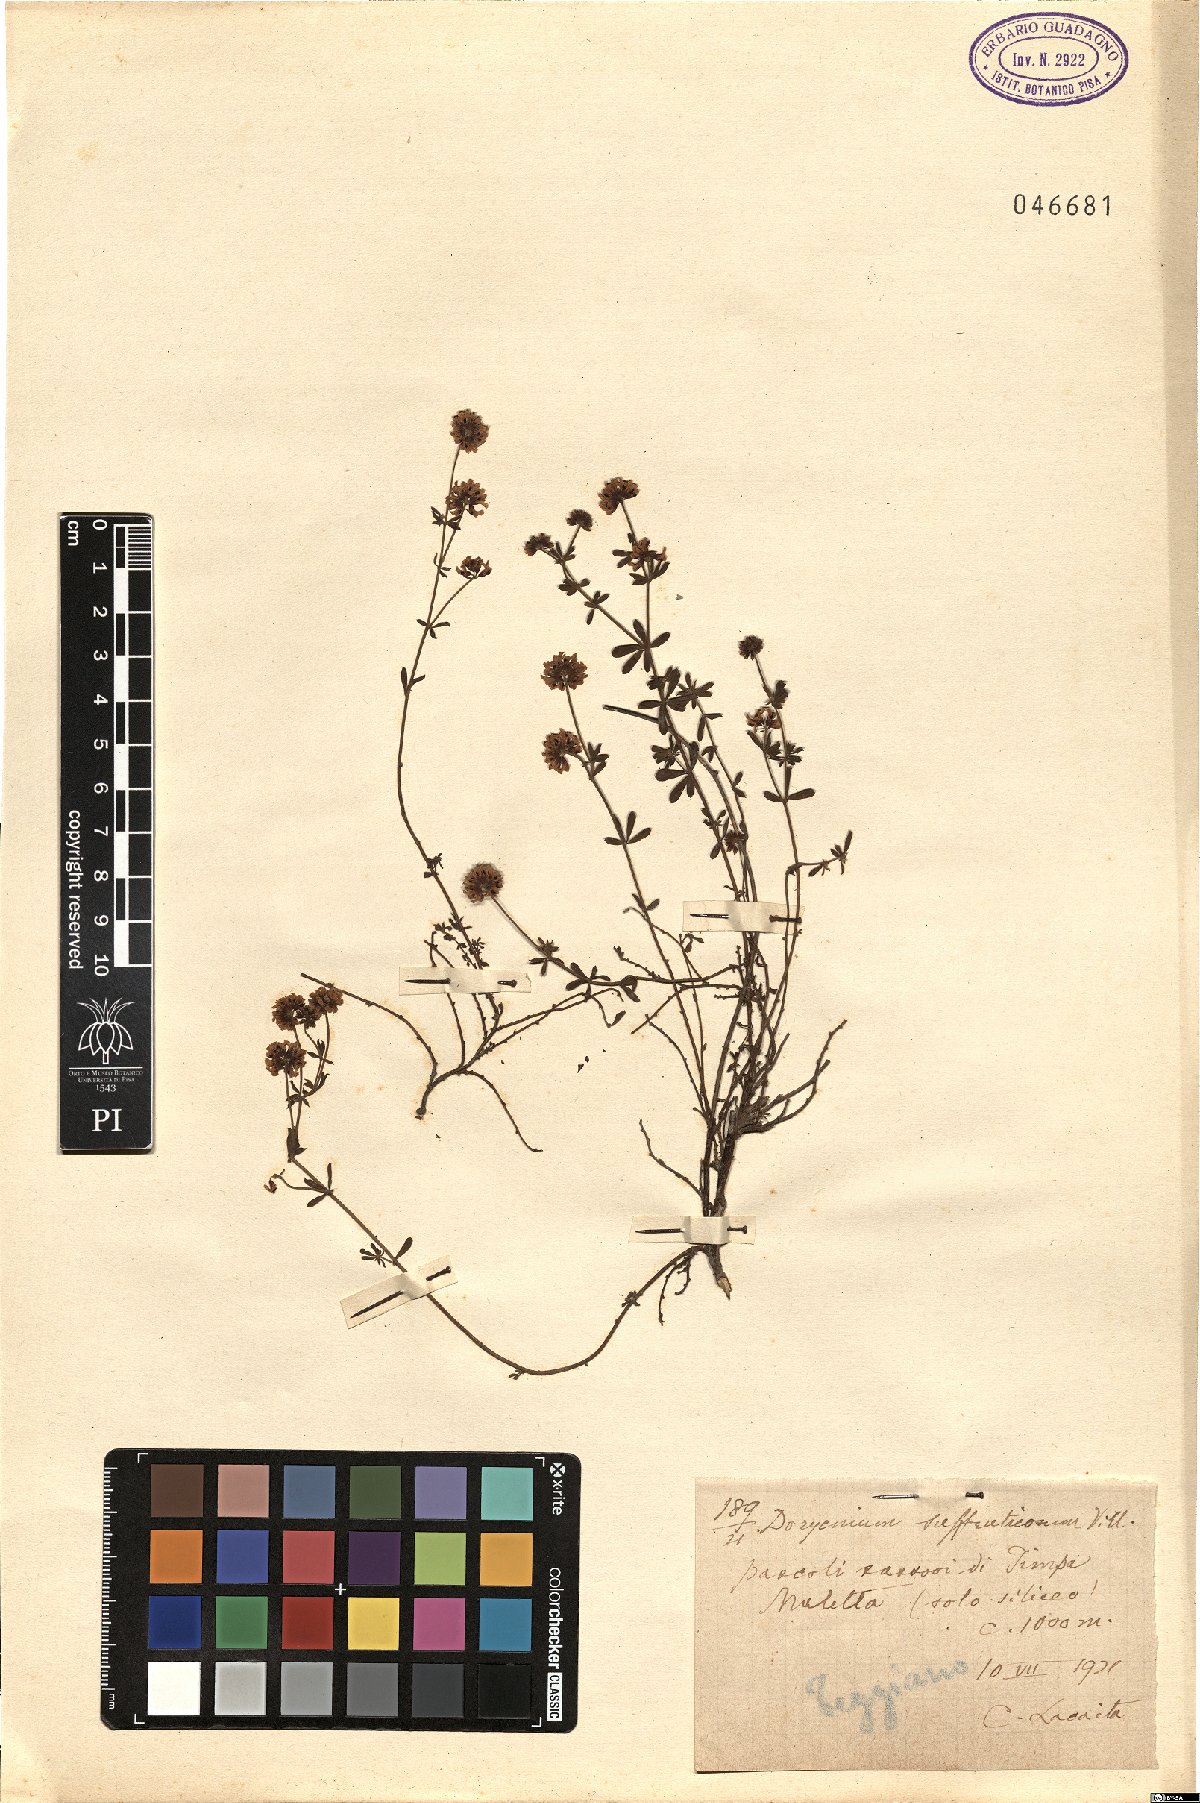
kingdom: Plantae
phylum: Tracheophyta
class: Magnoliopsida
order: Fabales
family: Fabaceae
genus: Lotus
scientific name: Lotus dorycnium
